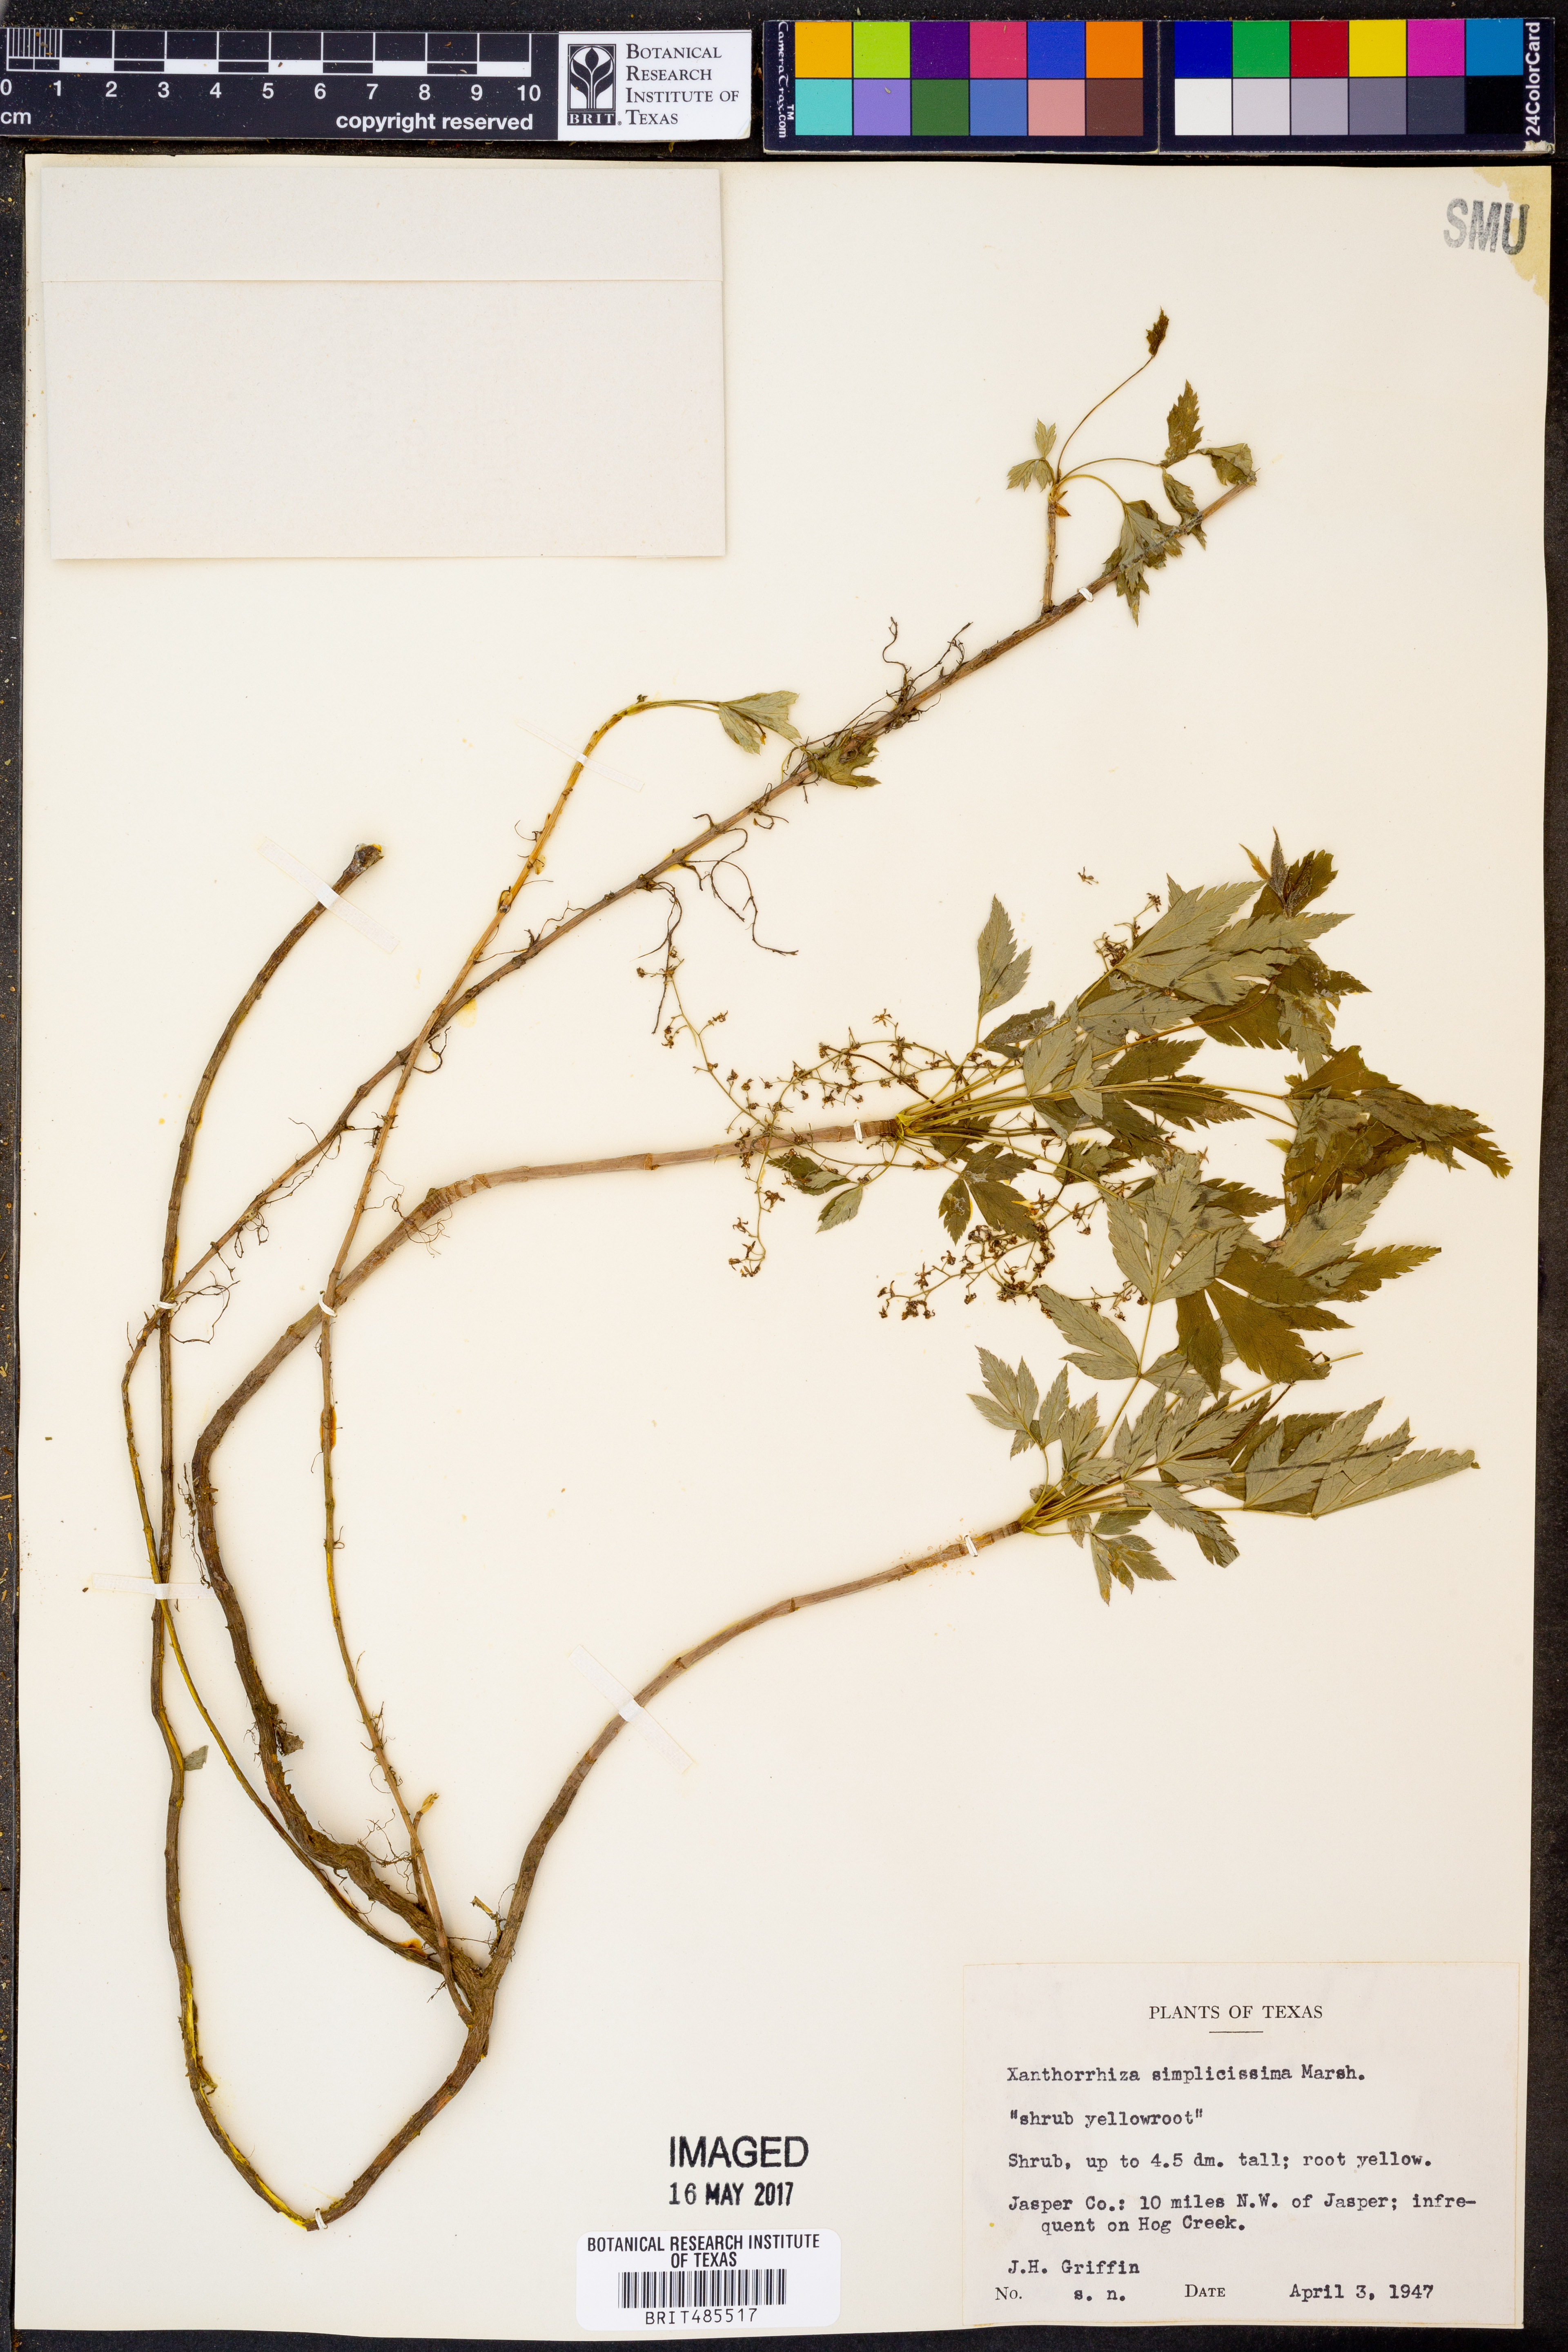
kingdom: Plantae
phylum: Tracheophyta
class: Magnoliopsida
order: Ranunculales
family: Ranunculaceae
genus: Xanthorhiza
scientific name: Xanthorhiza simplicissima
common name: Yellowroot
